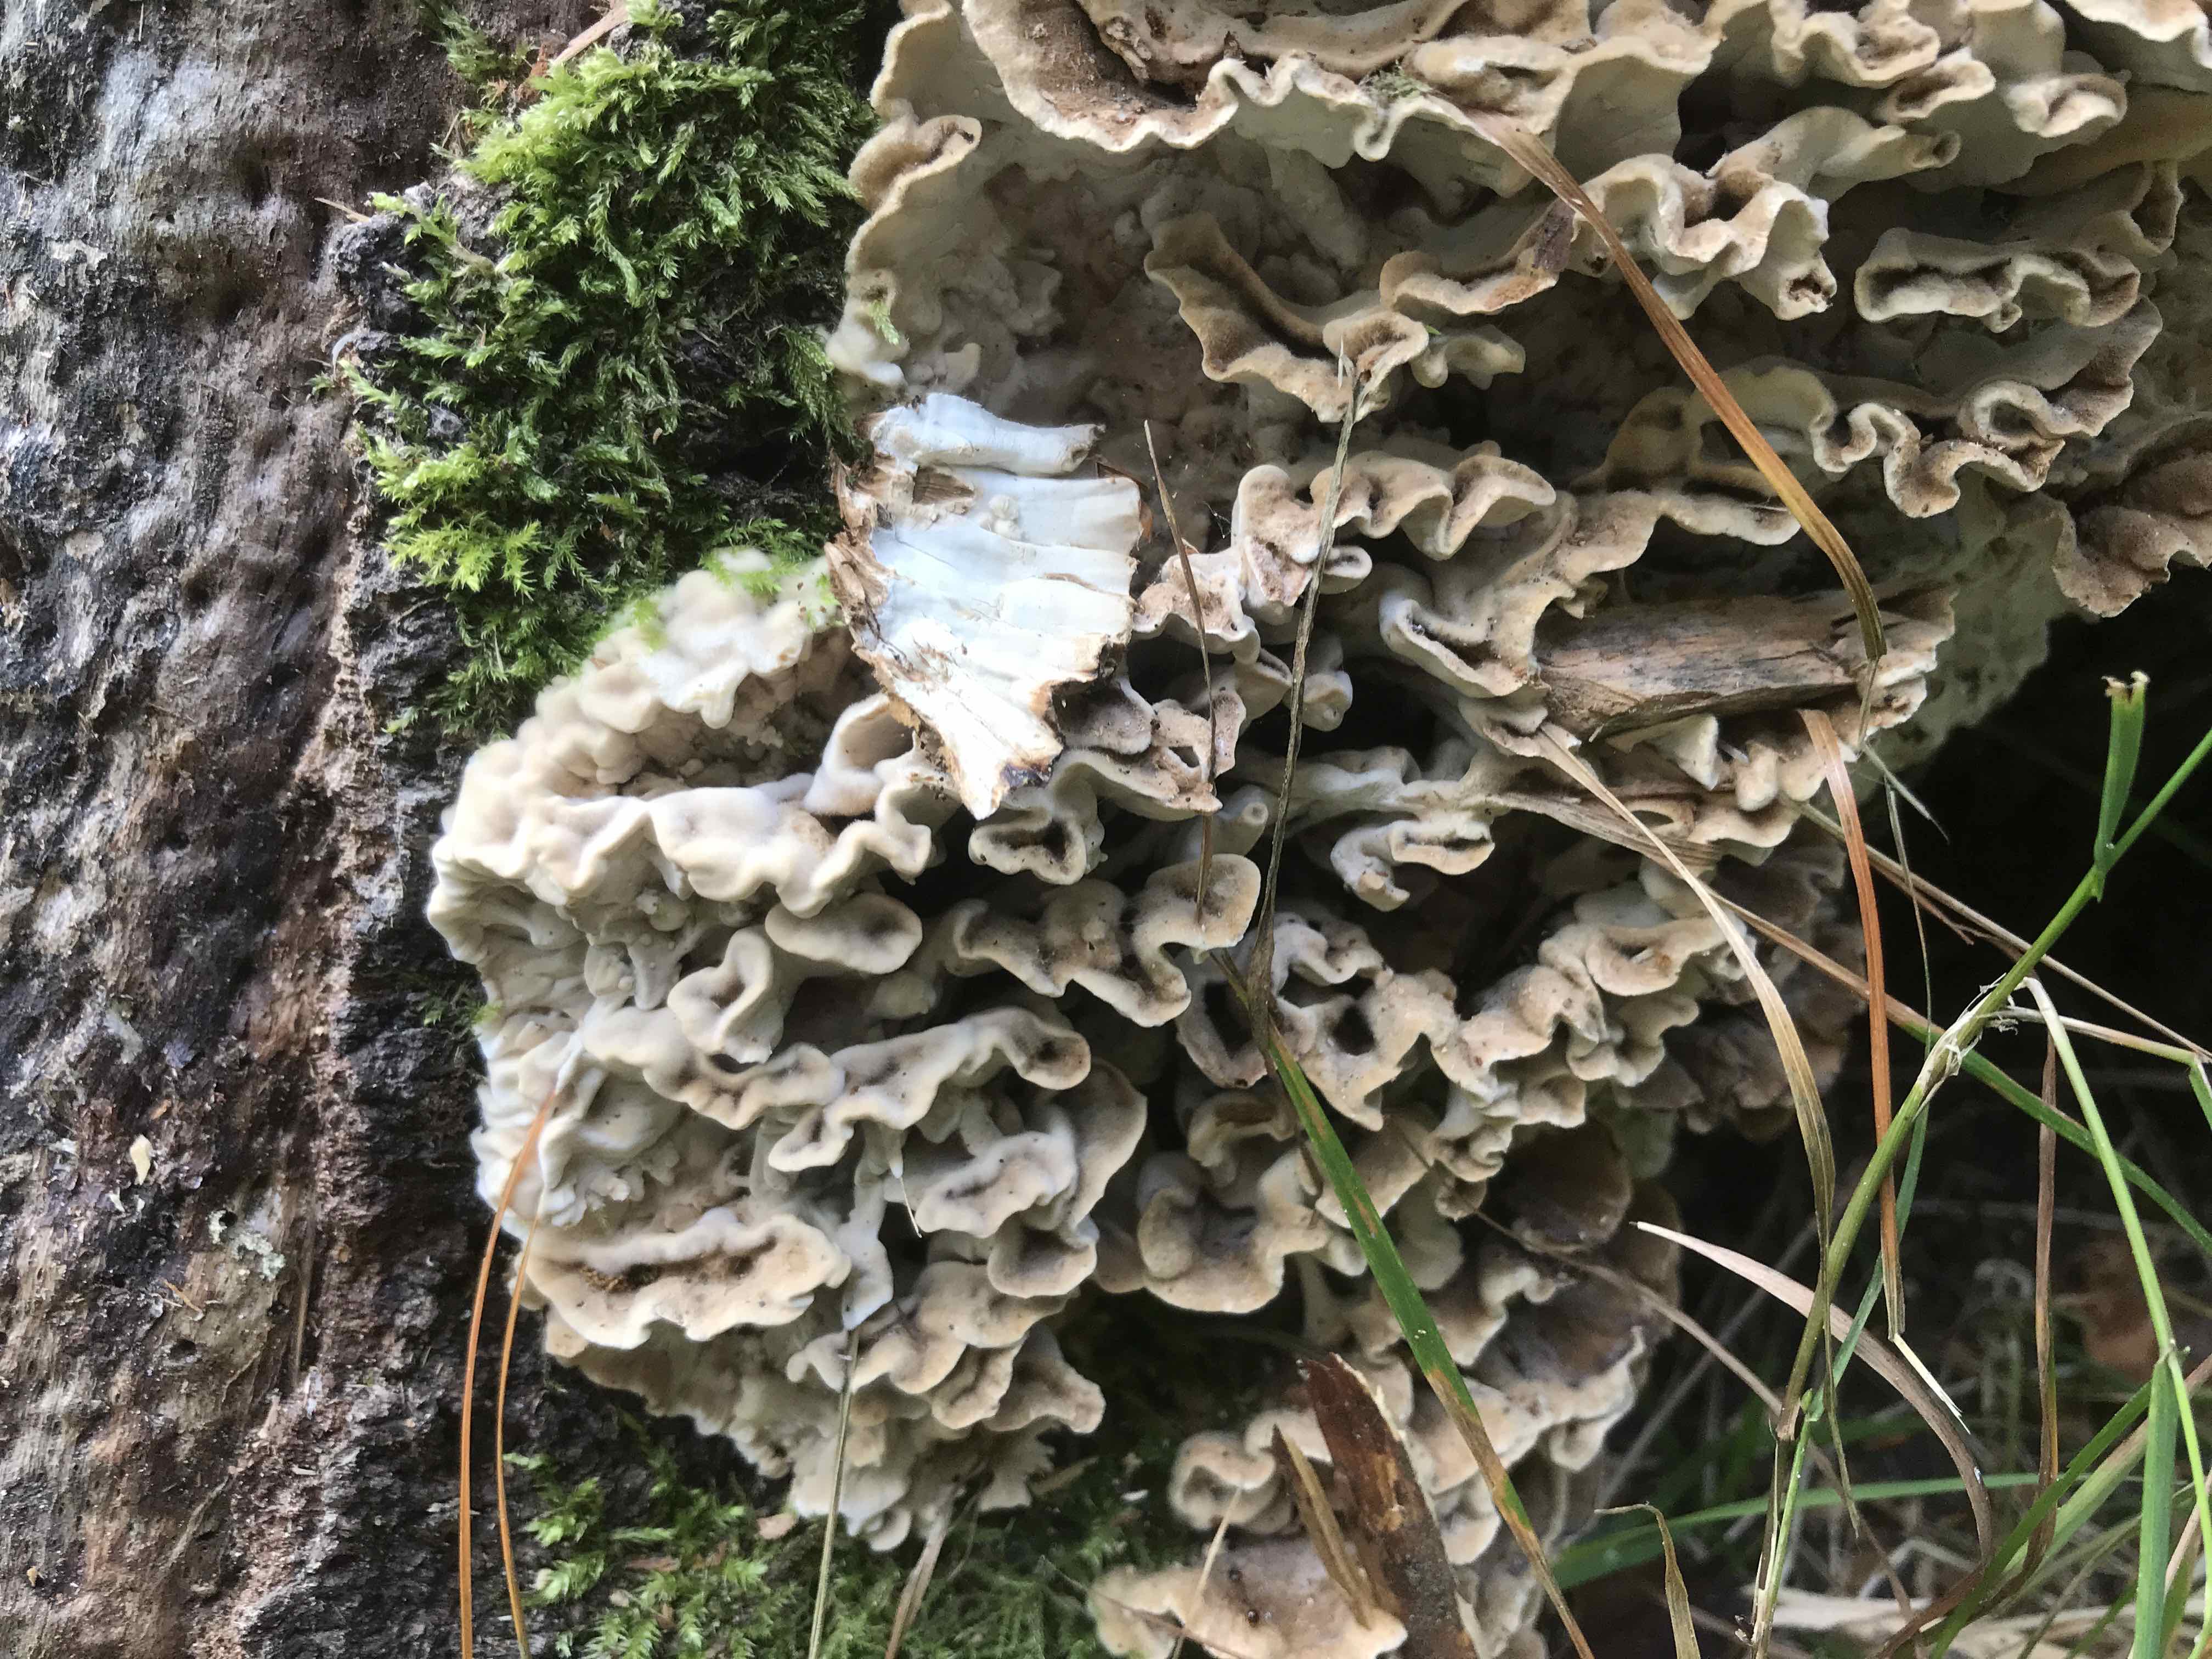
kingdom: Fungi
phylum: Basidiomycota
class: Agaricomycetes
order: Russulales
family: Hericiaceae
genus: Laxitextum
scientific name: Laxitextum bicolor
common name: tvefarvet filtskind
